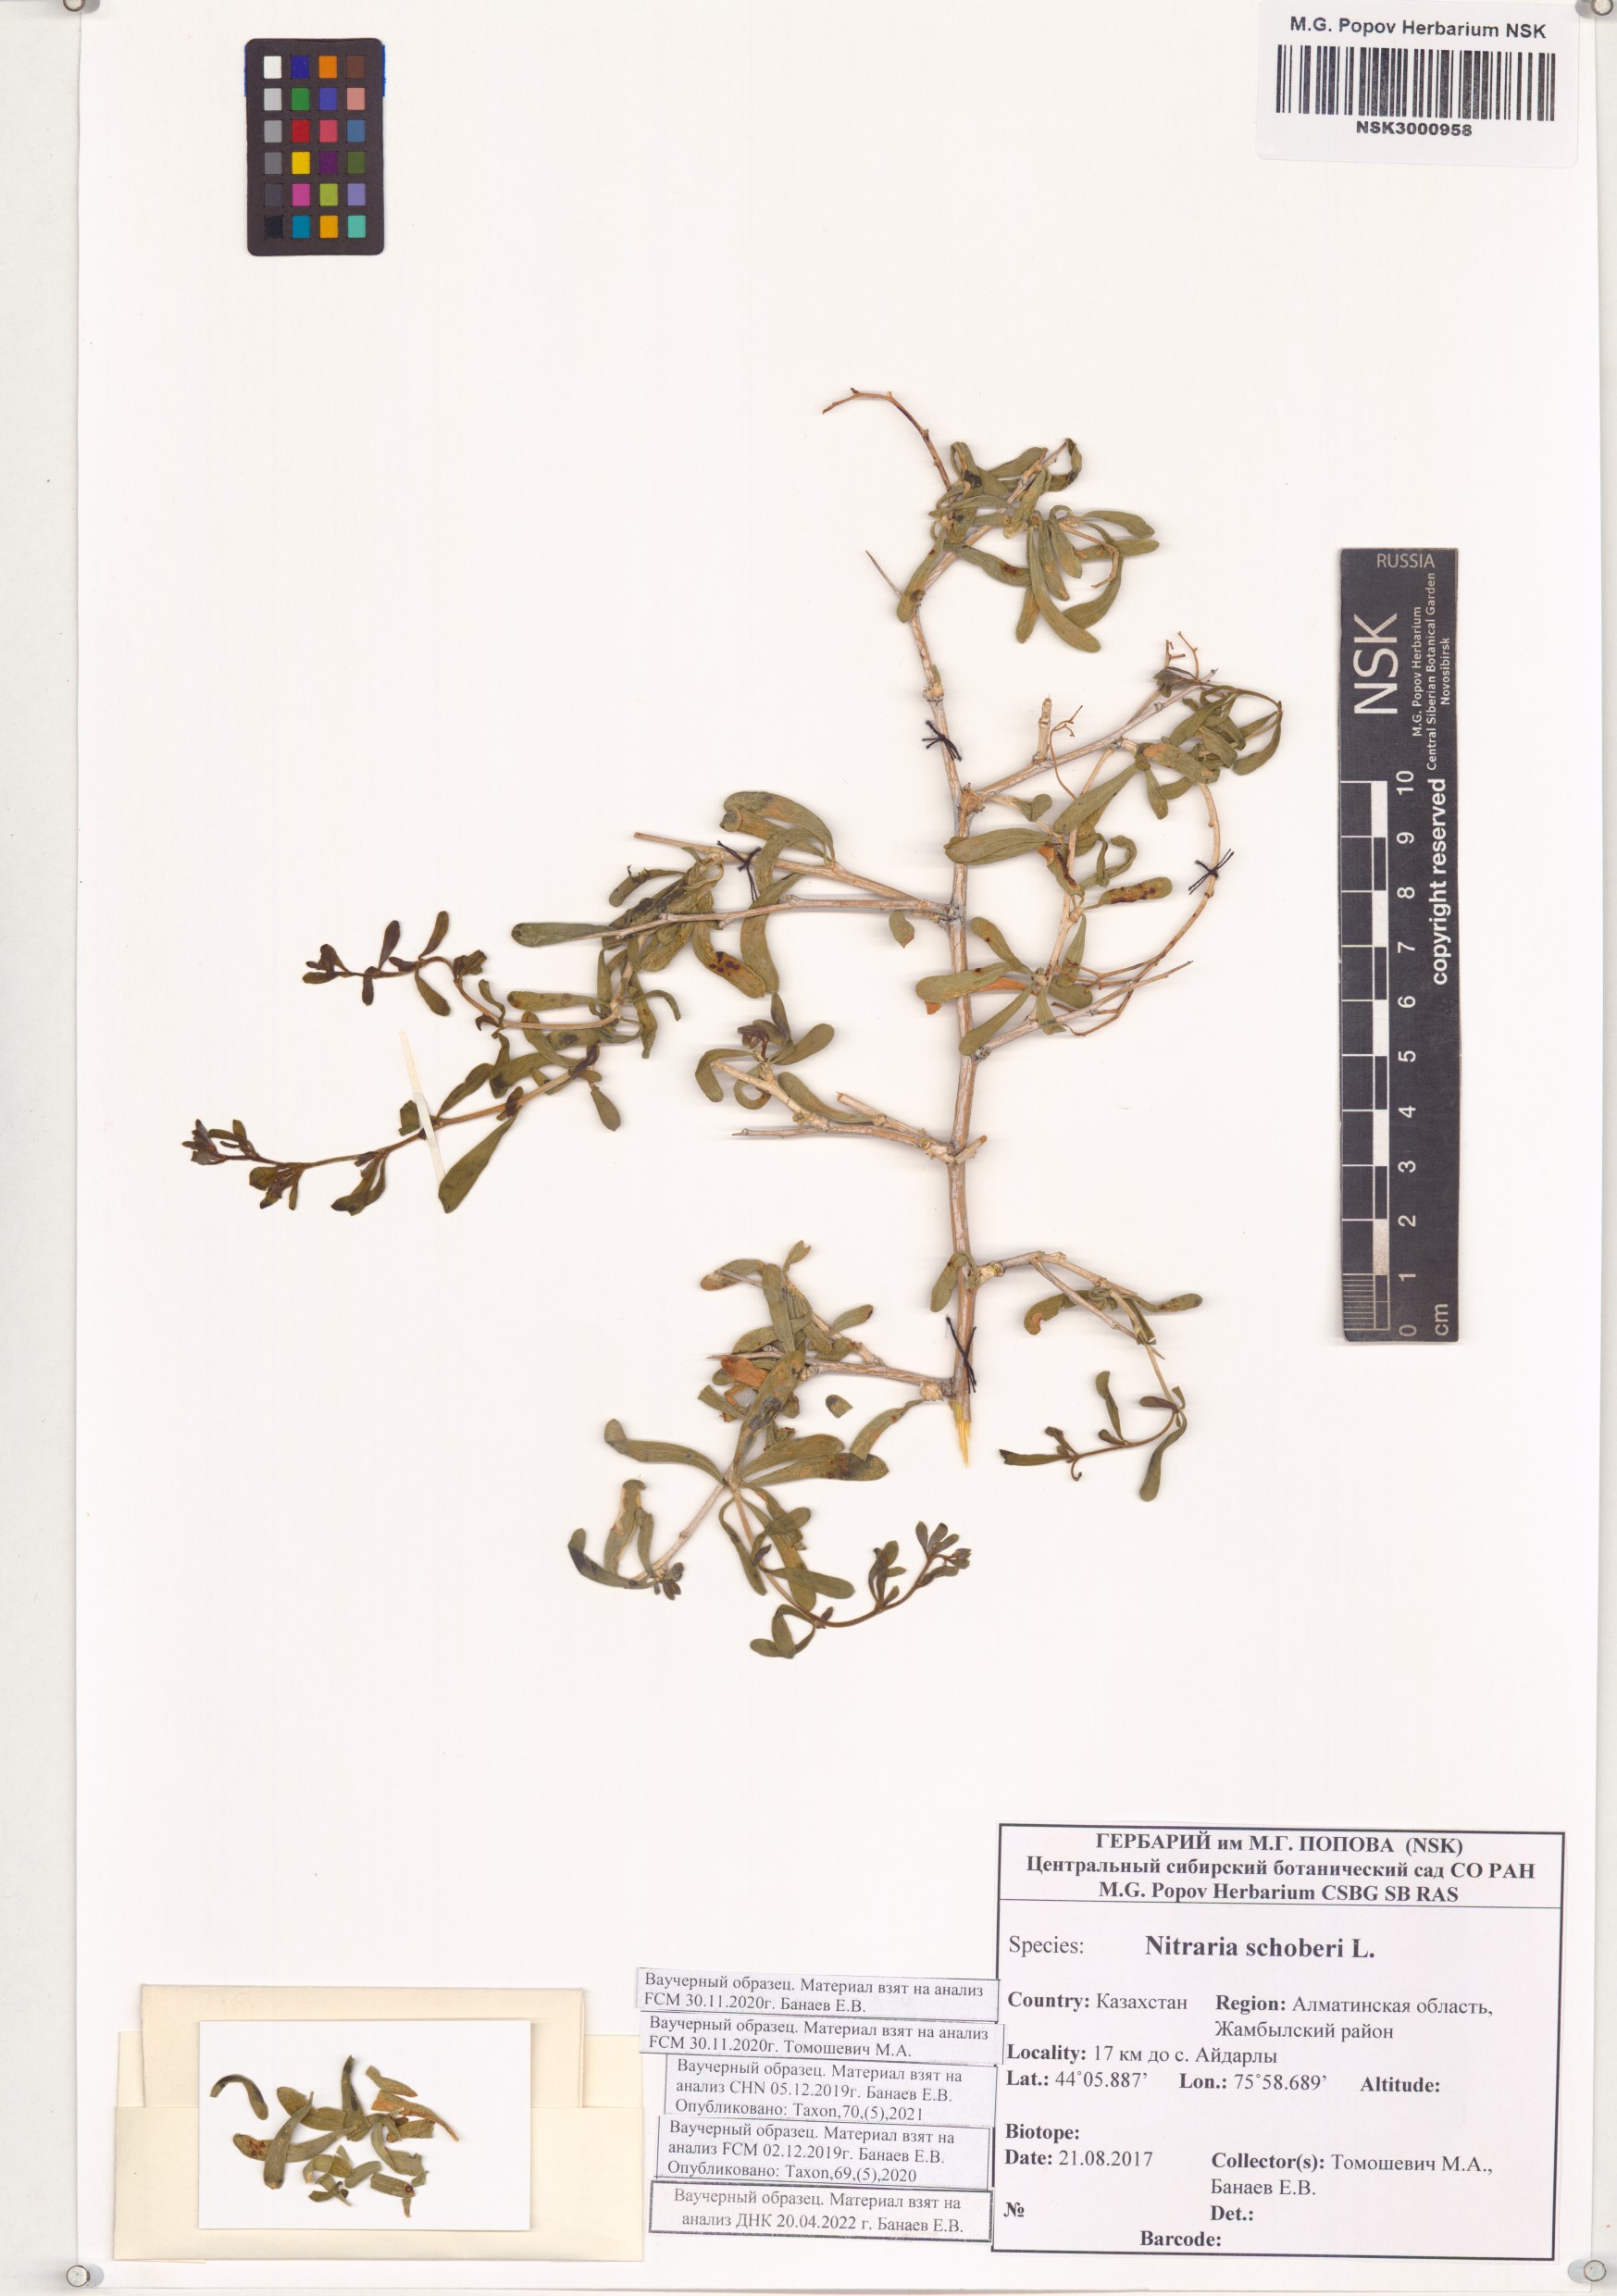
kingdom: Plantae
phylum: Tracheophyta
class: Magnoliopsida
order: Sapindales
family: Nitrariaceae
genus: Nitraria
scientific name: Nitraria schoberi
